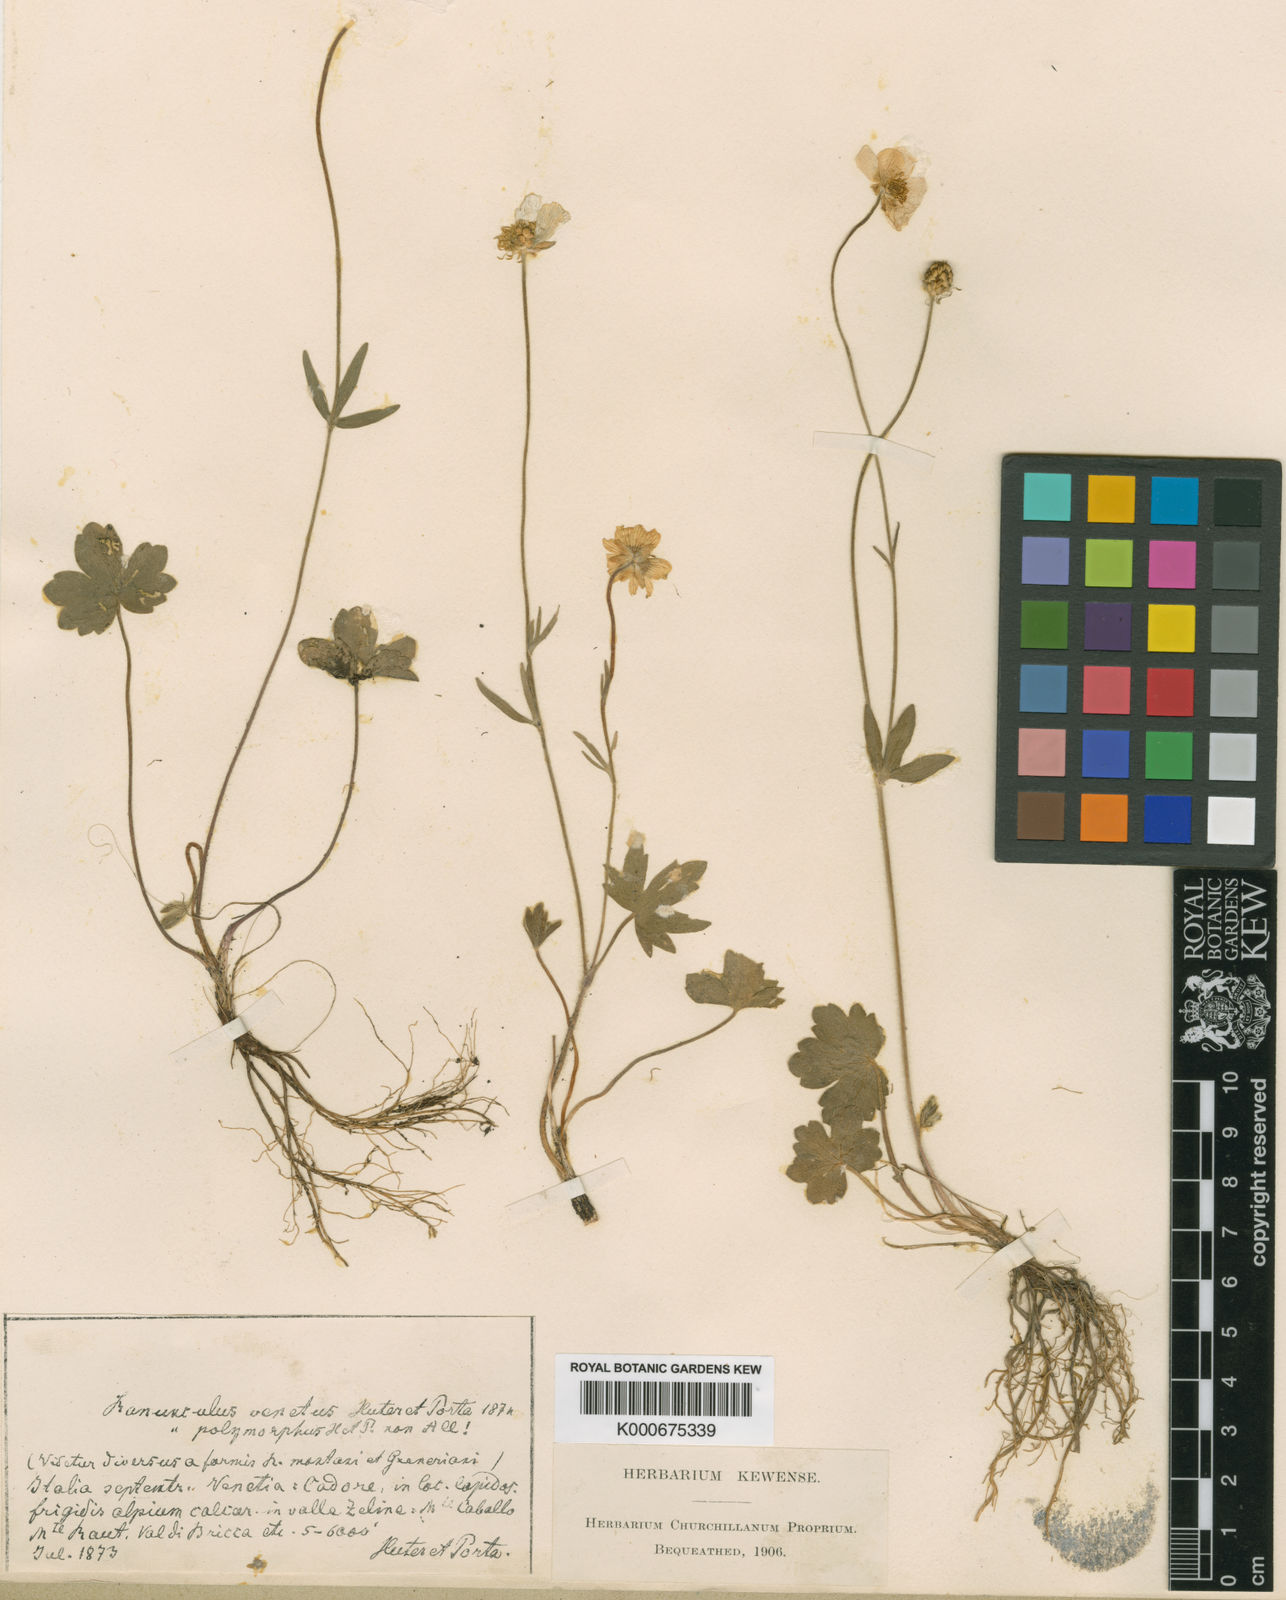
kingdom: Plantae
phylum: Tracheophyta
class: Magnoliopsida
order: Ranunculales
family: Ranunculaceae
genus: Ranunculus
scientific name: Ranunculus venetus
